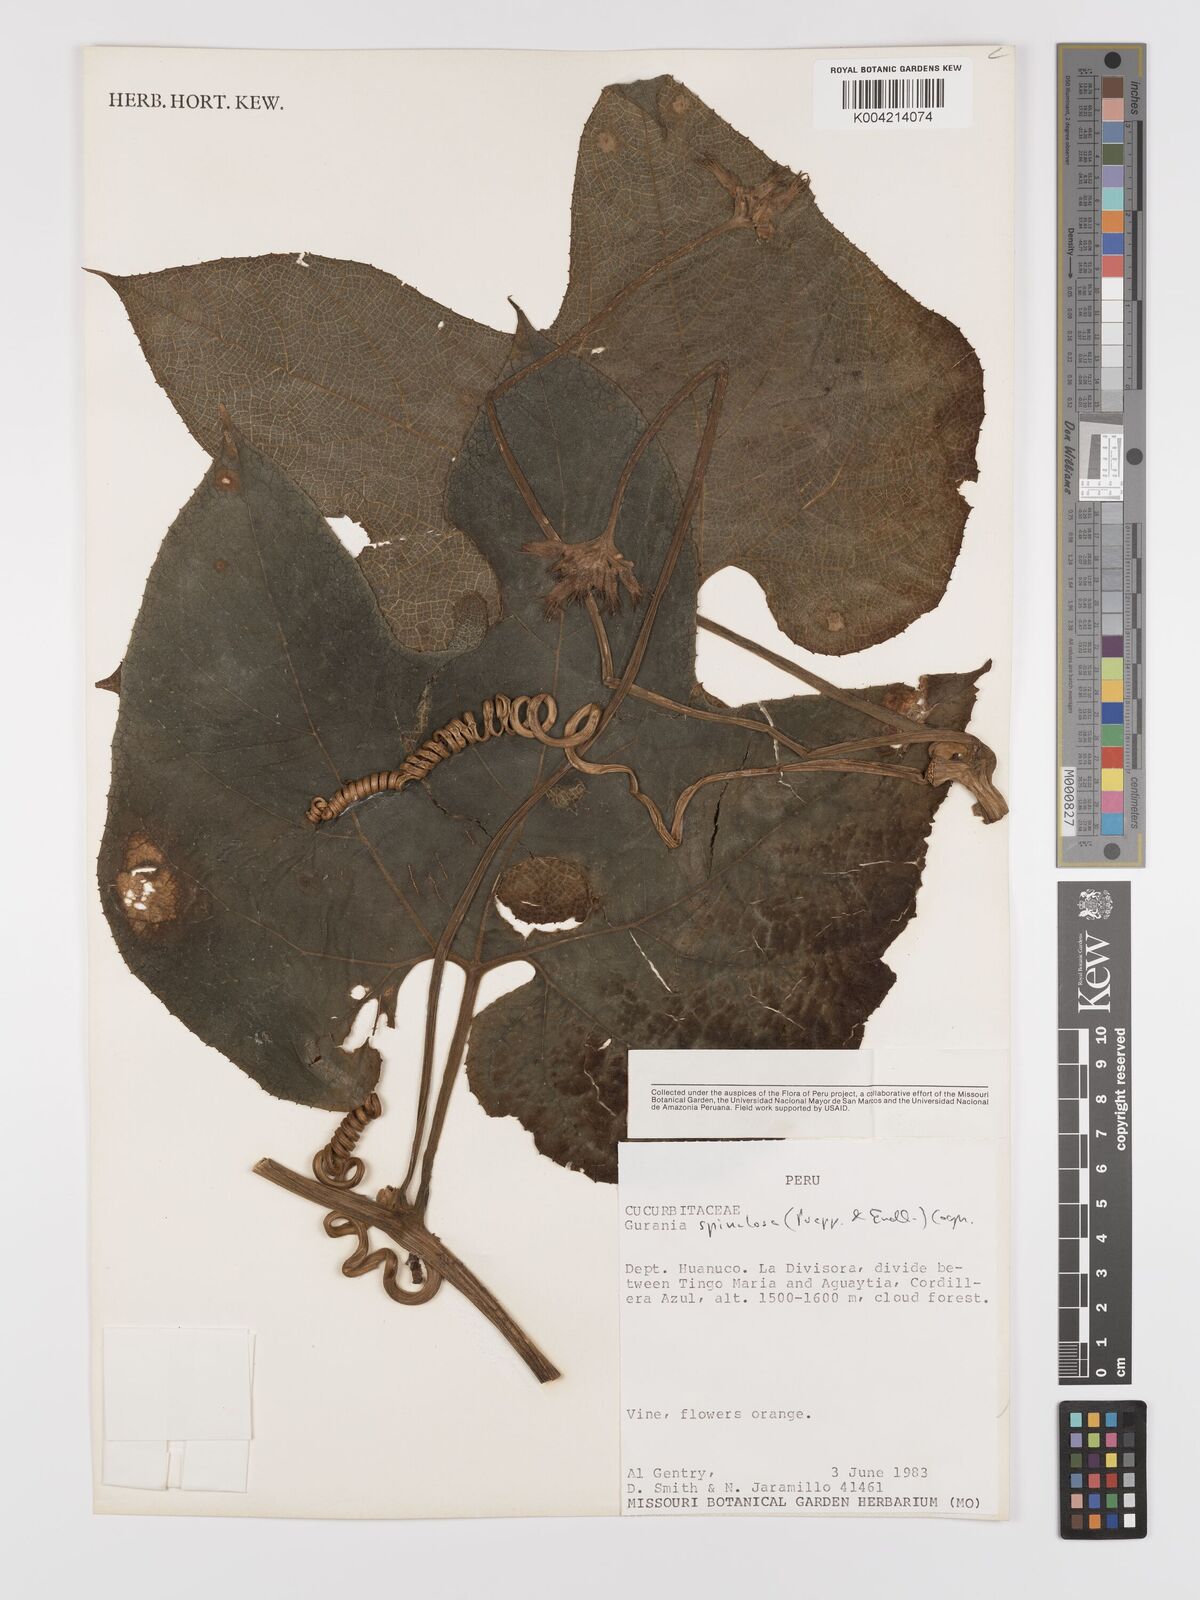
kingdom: Plantae
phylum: Tracheophyta
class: Magnoliopsida
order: Cucurbitales
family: Cucurbitaceae
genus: Gurania
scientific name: Gurania lobata
